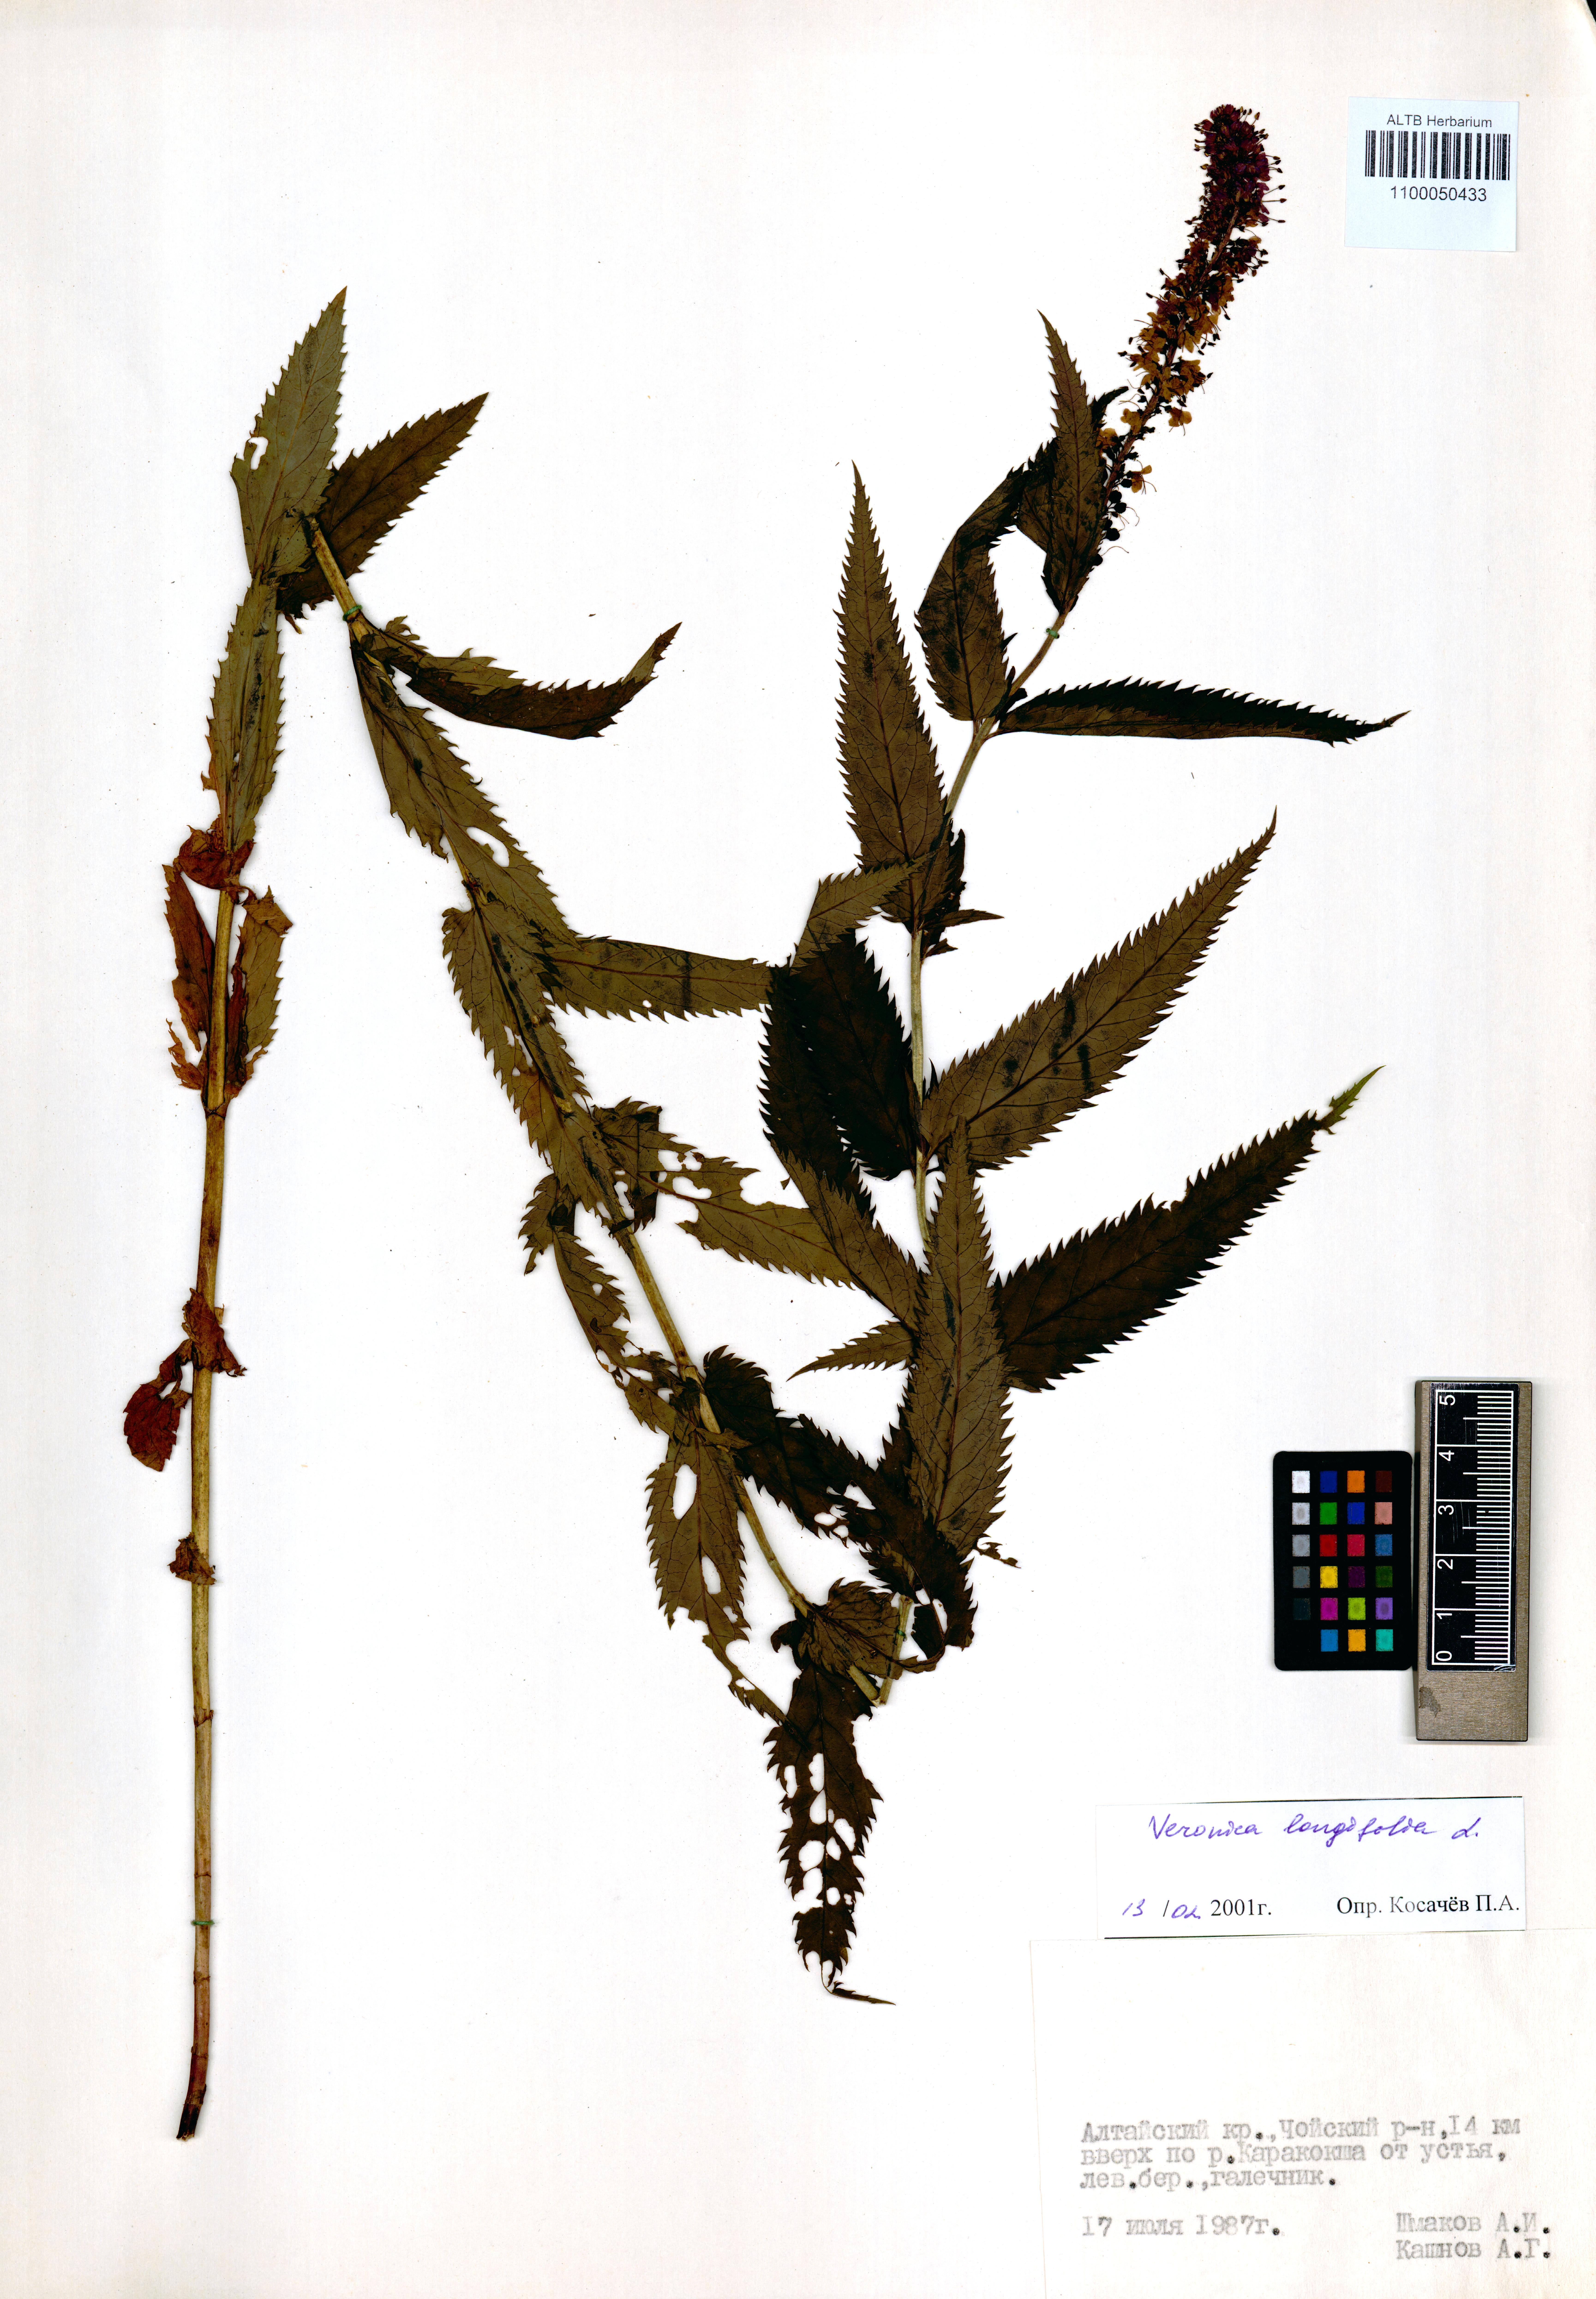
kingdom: Plantae
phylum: Tracheophyta
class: Magnoliopsida
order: Lamiales
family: Plantaginaceae
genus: Veronica
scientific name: Veronica longifolia
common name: Garden speedwell
